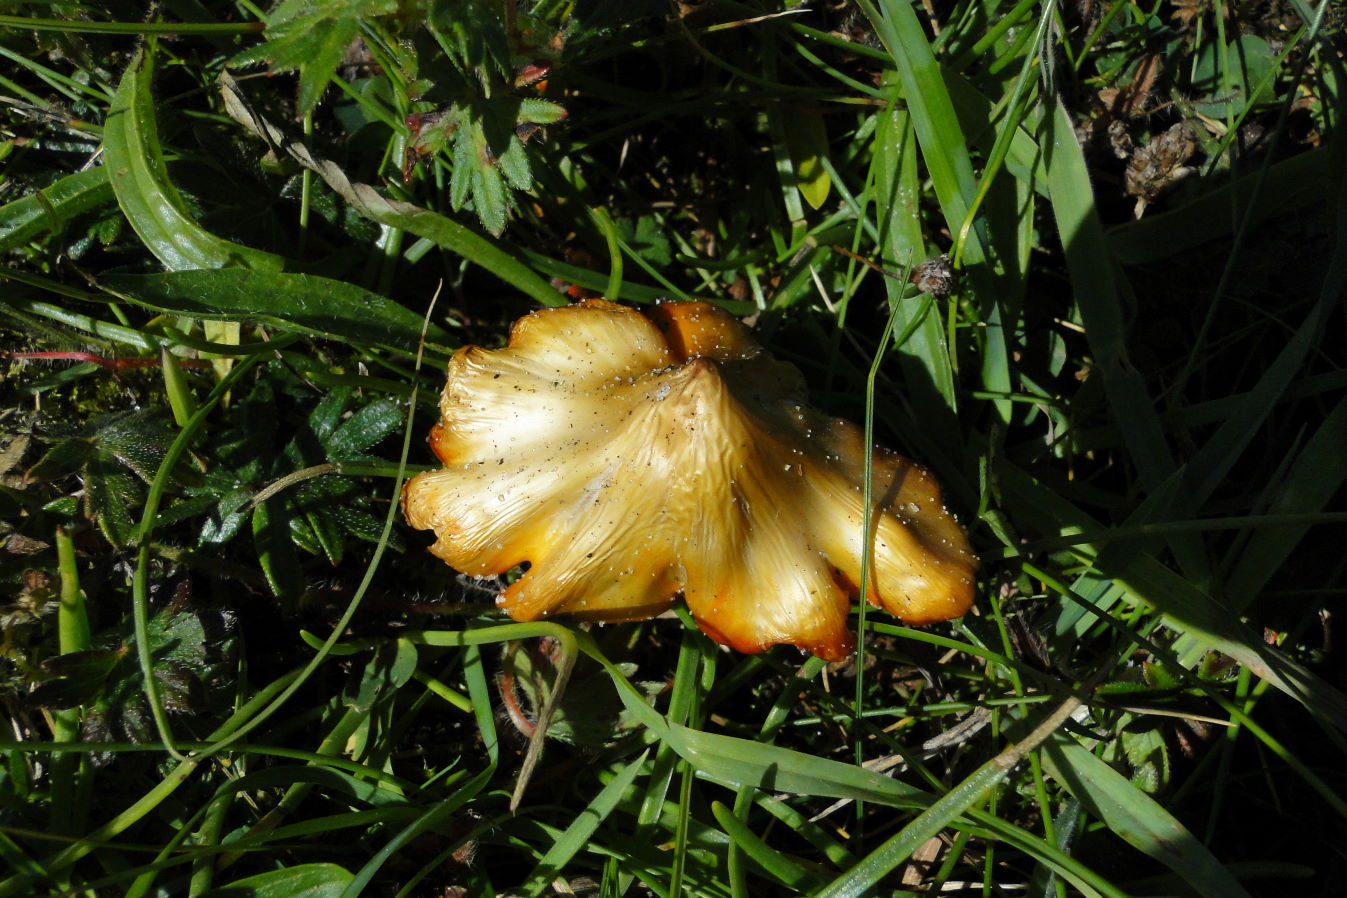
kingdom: Fungi
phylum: Basidiomycota
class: Agaricomycetes
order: Agaricales
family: Hygrophoraceae
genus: Hygrocybe
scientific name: Hygrocybe acutoconica
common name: spidspuklet vokshat
